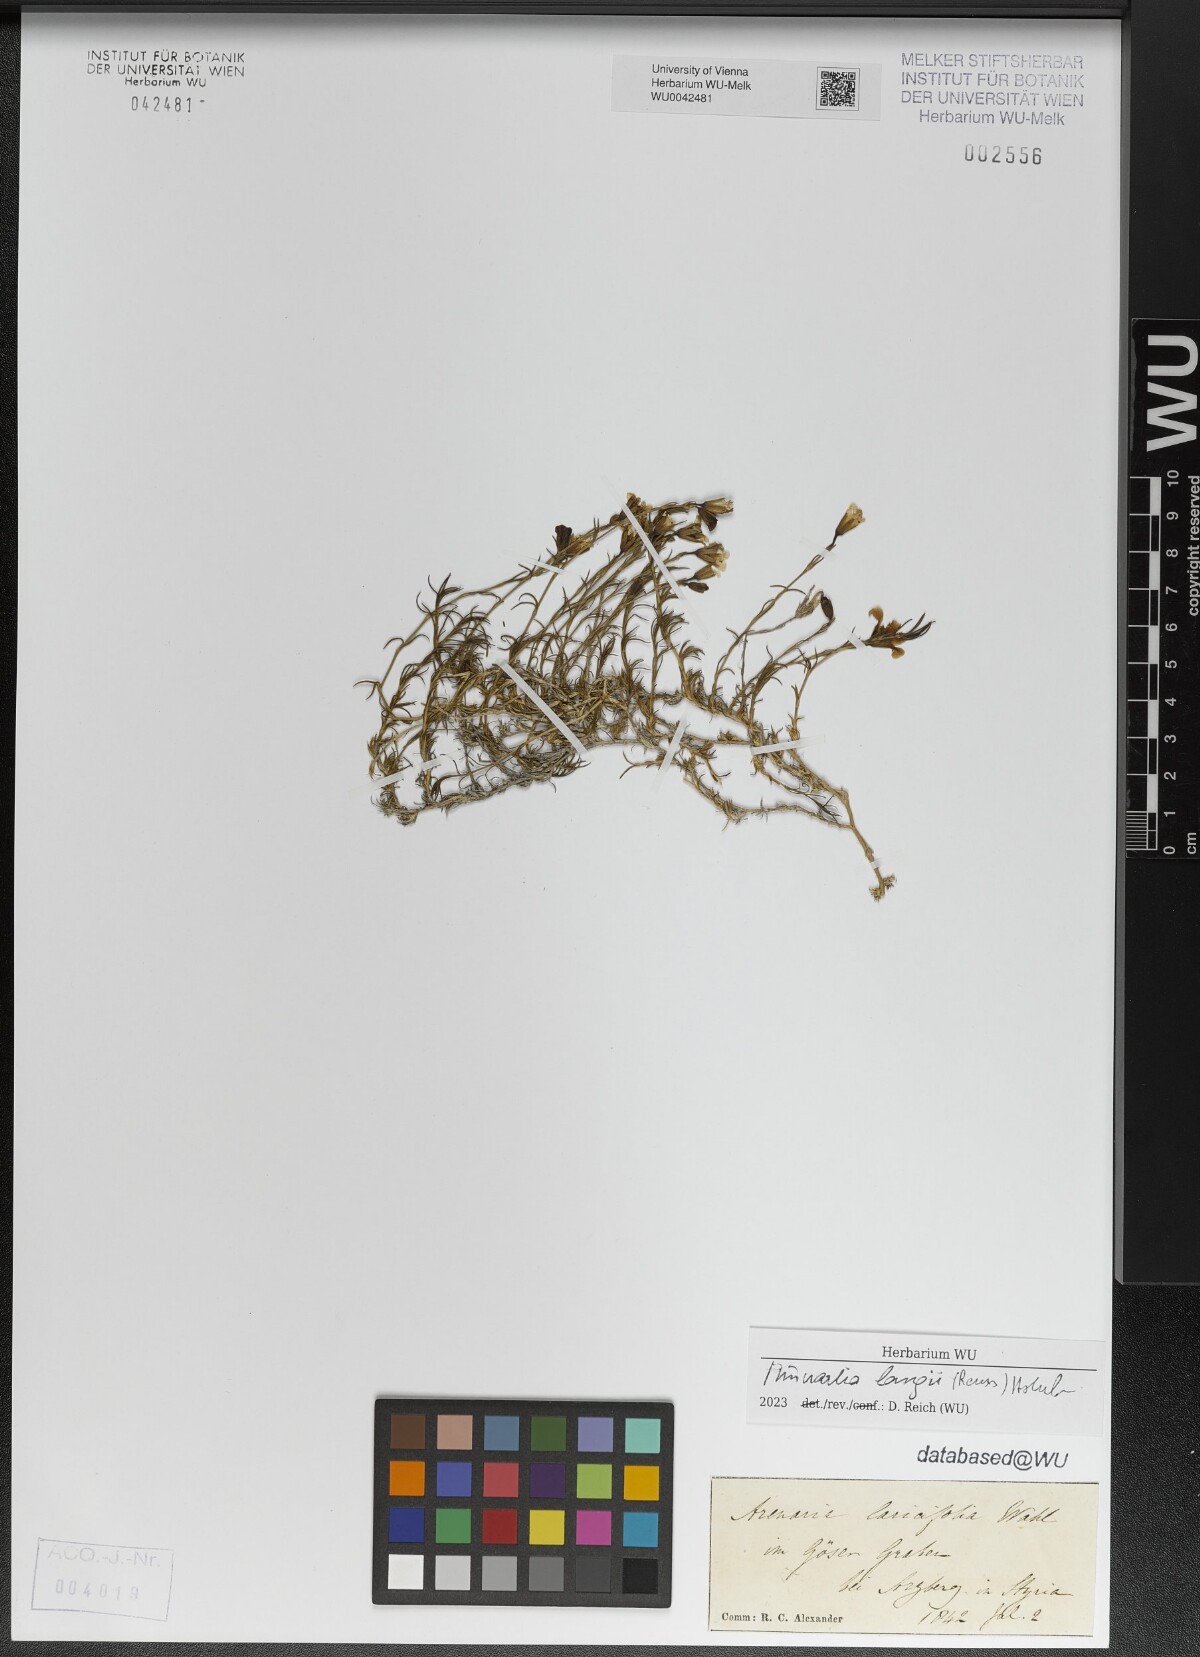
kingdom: Plantae
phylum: Tracheophyta
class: Magnoliopsida
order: Caryophyllales
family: Caryophyllaceae
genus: Cherleria
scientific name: Cherleria langii
